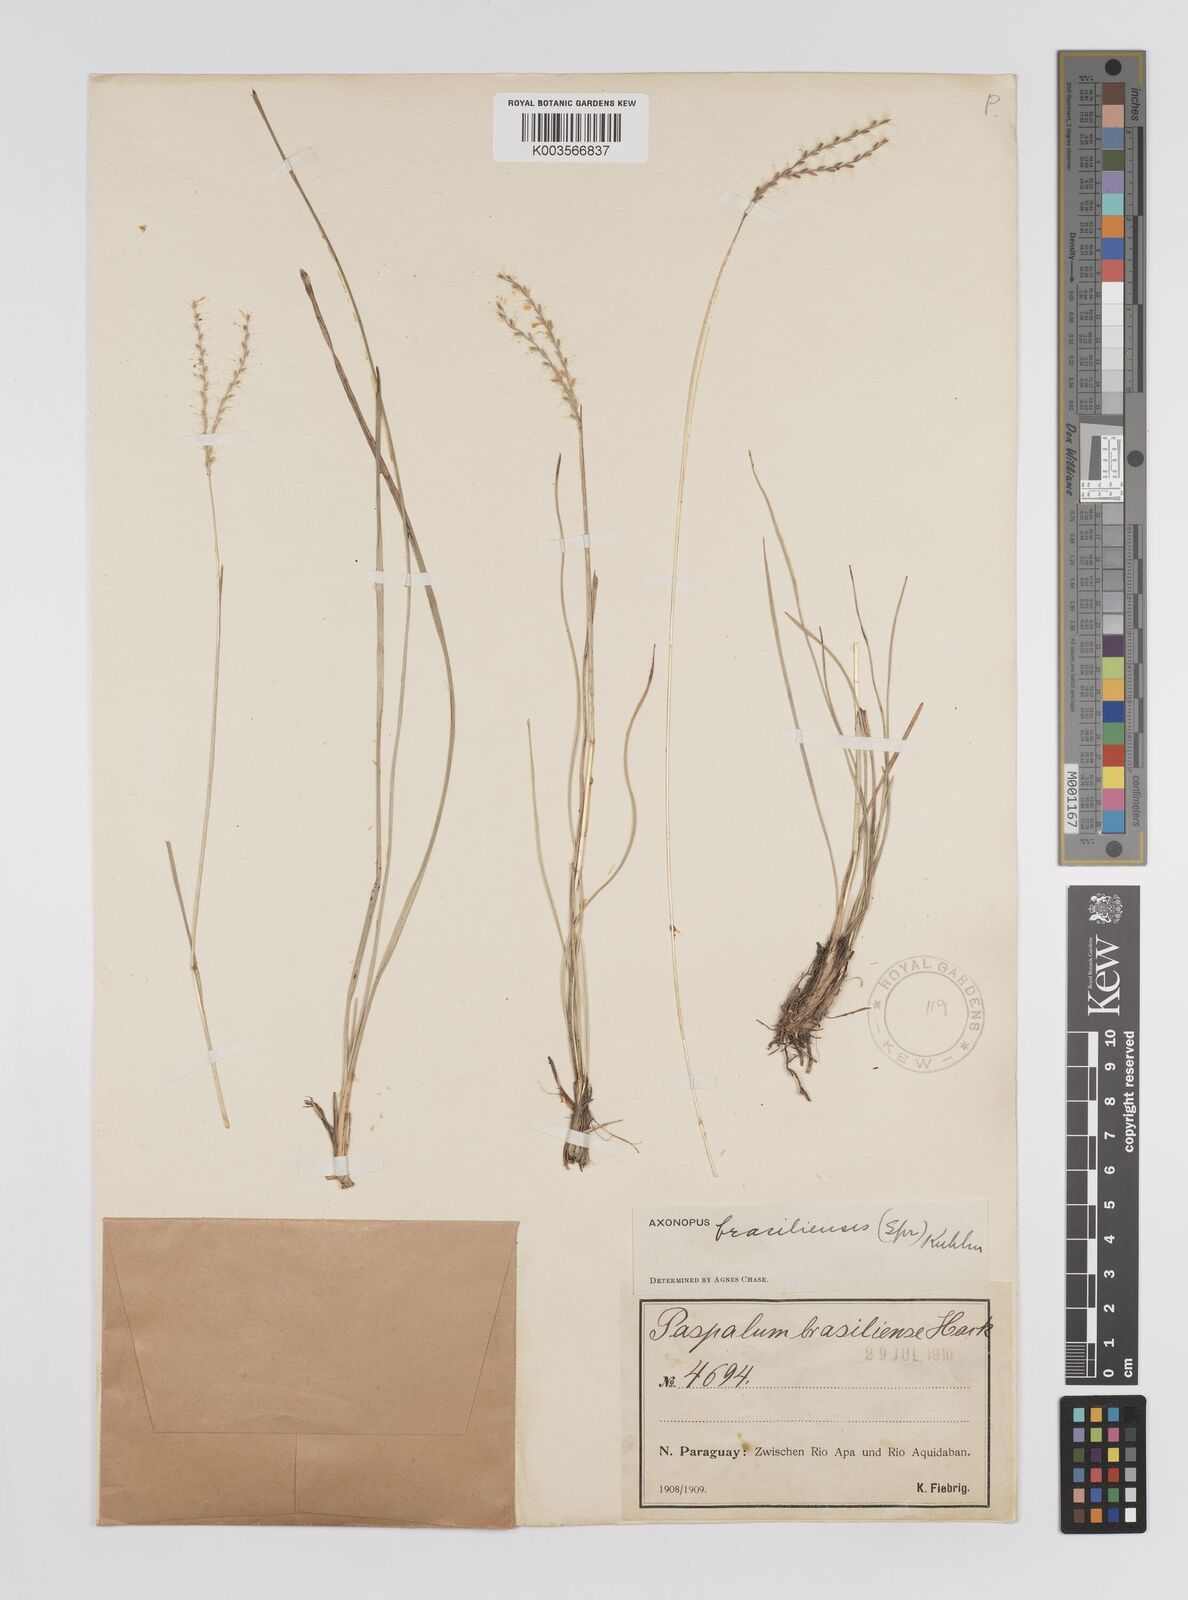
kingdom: Plantae
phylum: Tracheophyta
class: Liliopsida
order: Poales
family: Poaceae
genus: Axonopus
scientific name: Axonopus brasiliensis
